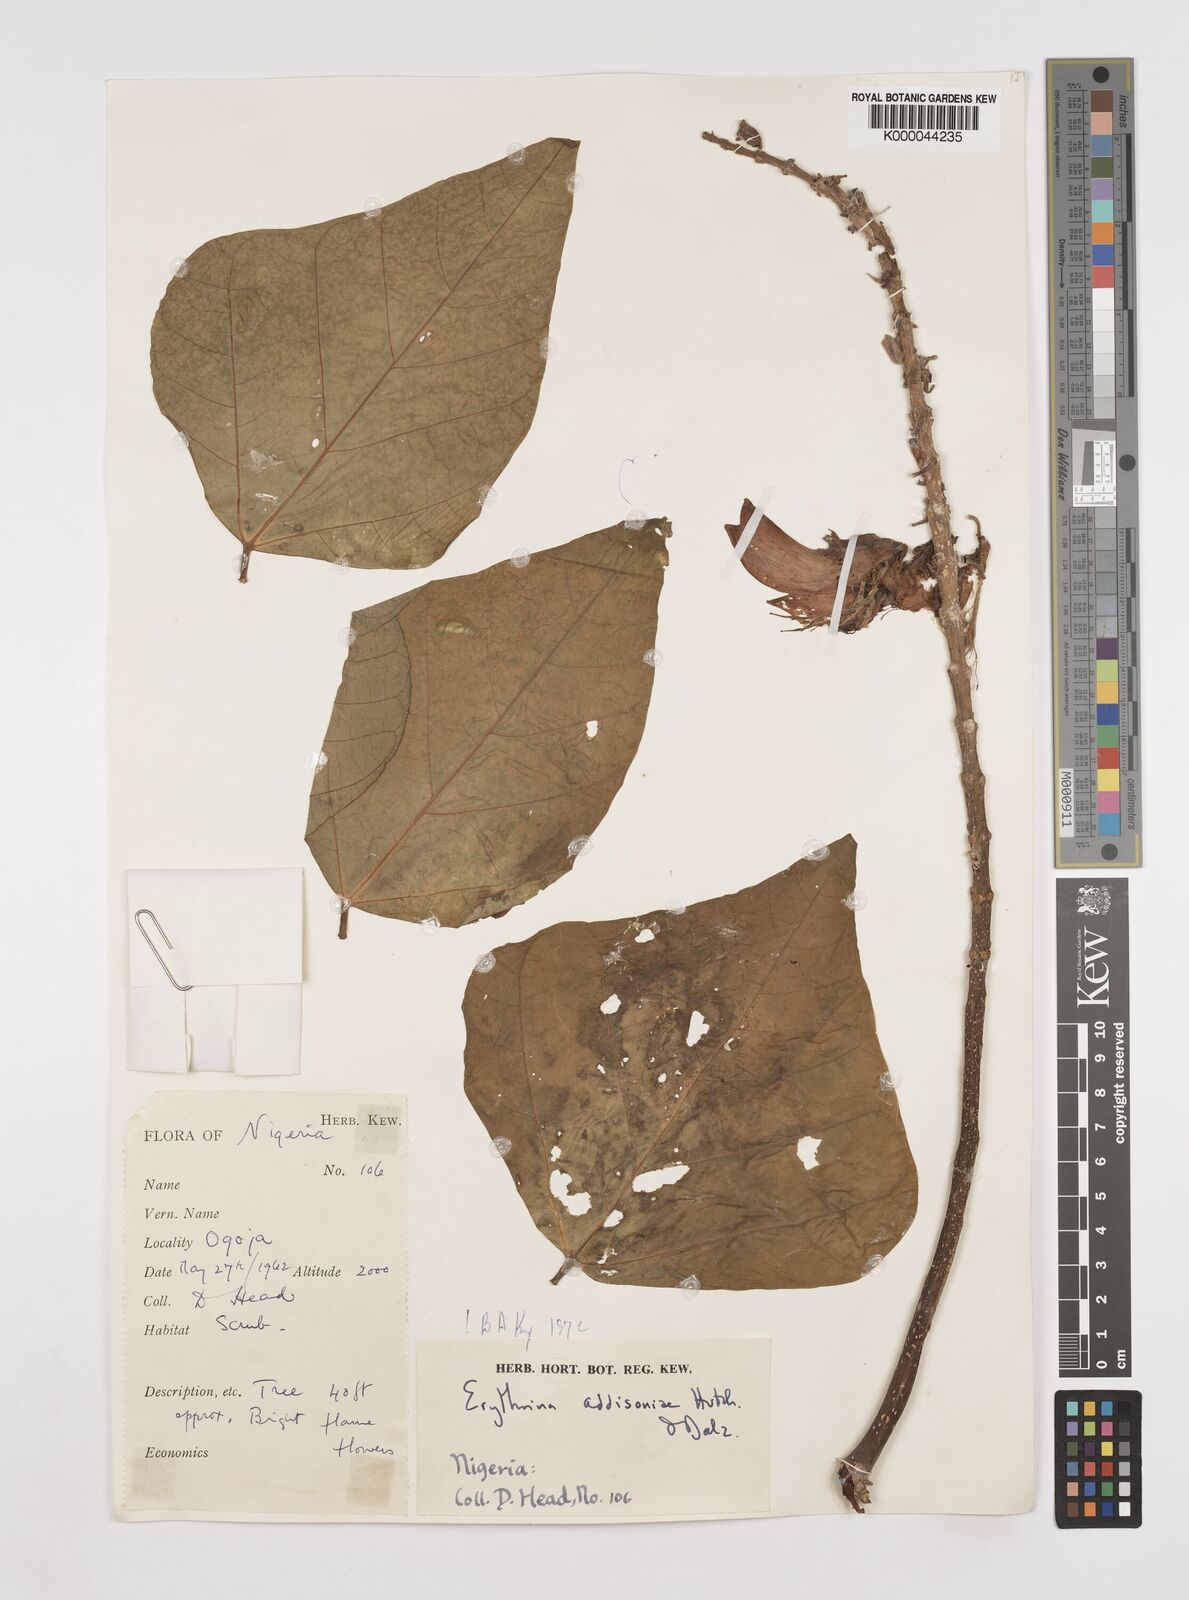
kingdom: Plantae
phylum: Tracheophyta
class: Magnoliopsida
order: Fabales
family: Fabaceae
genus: Erythrina
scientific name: Erythrina addisoniae
